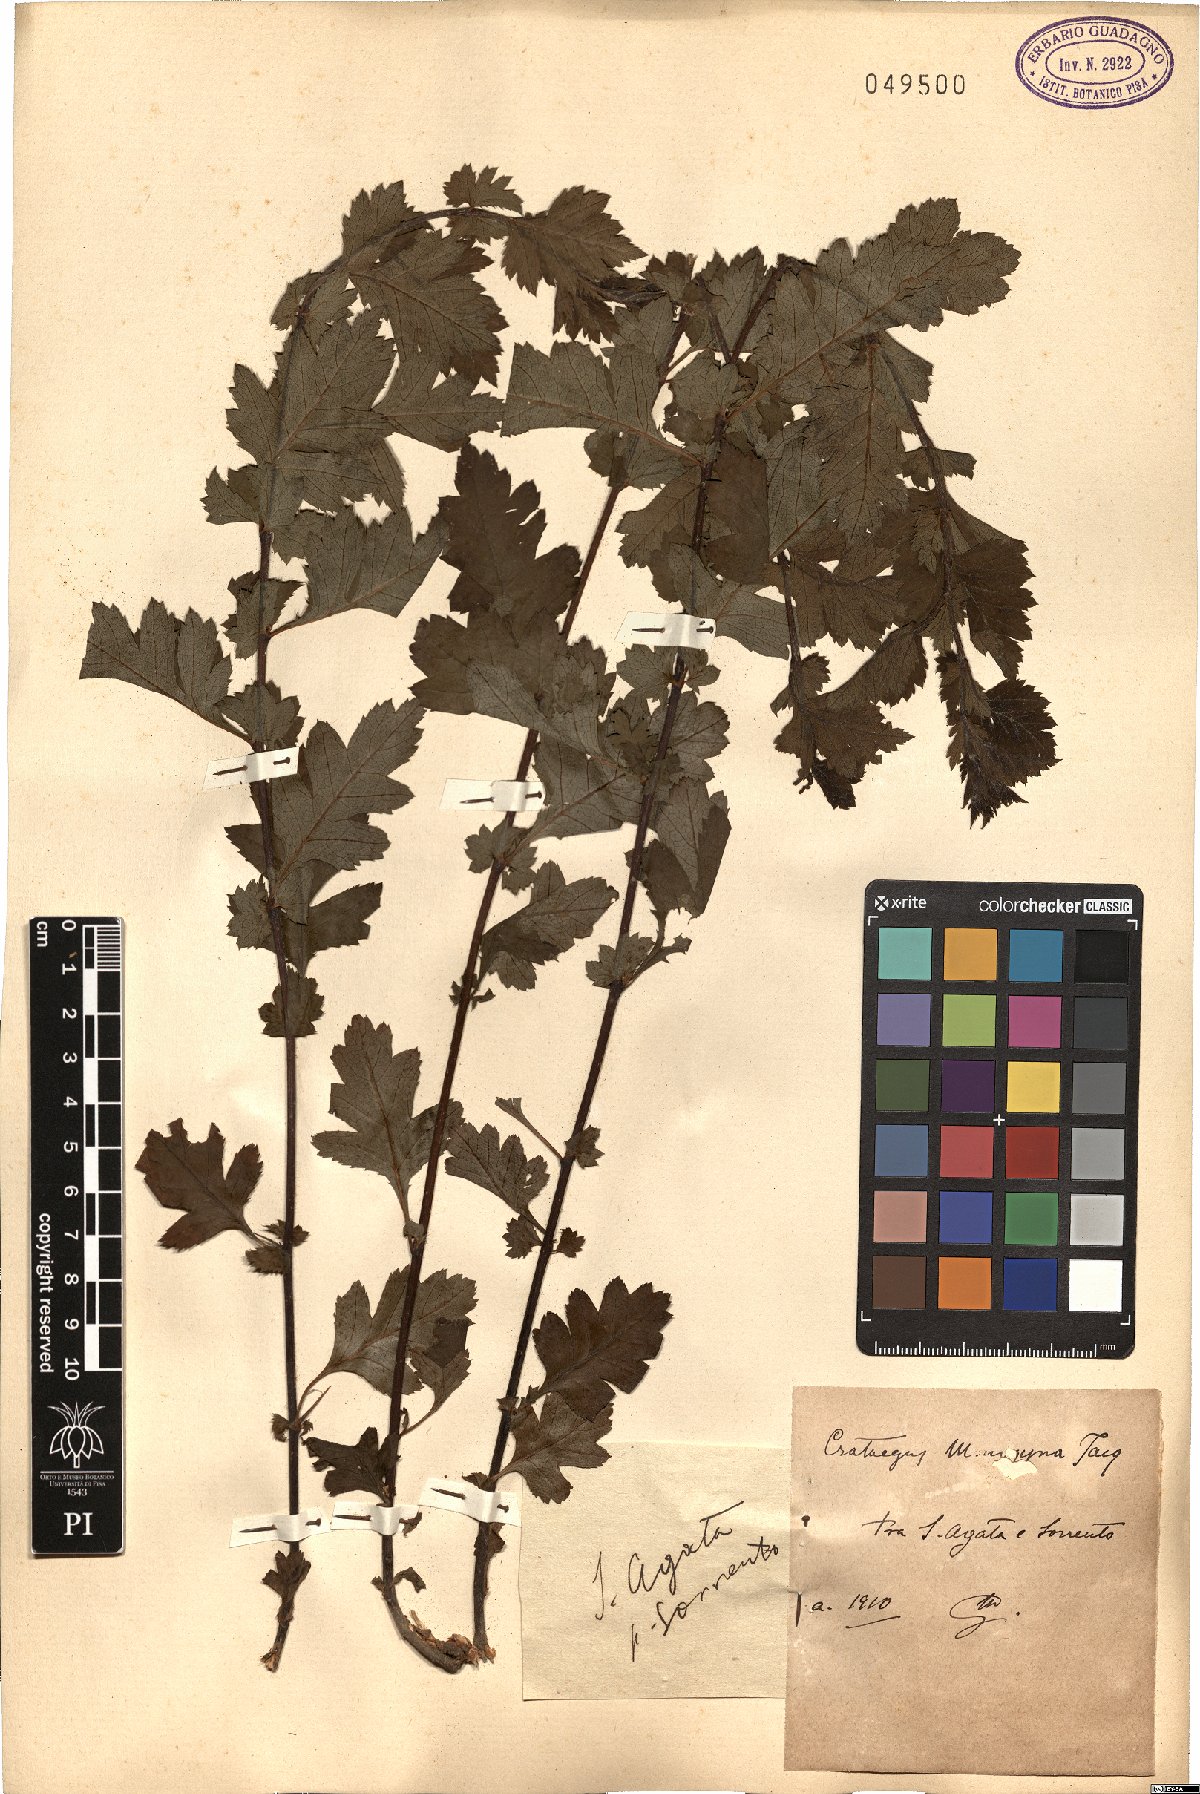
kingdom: Plantae
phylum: Tracheophyta
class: Magnoliopsida
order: Rosales
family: Rosaceae
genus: Crataegus
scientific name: Crataegus monogyna
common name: Hawthorn
